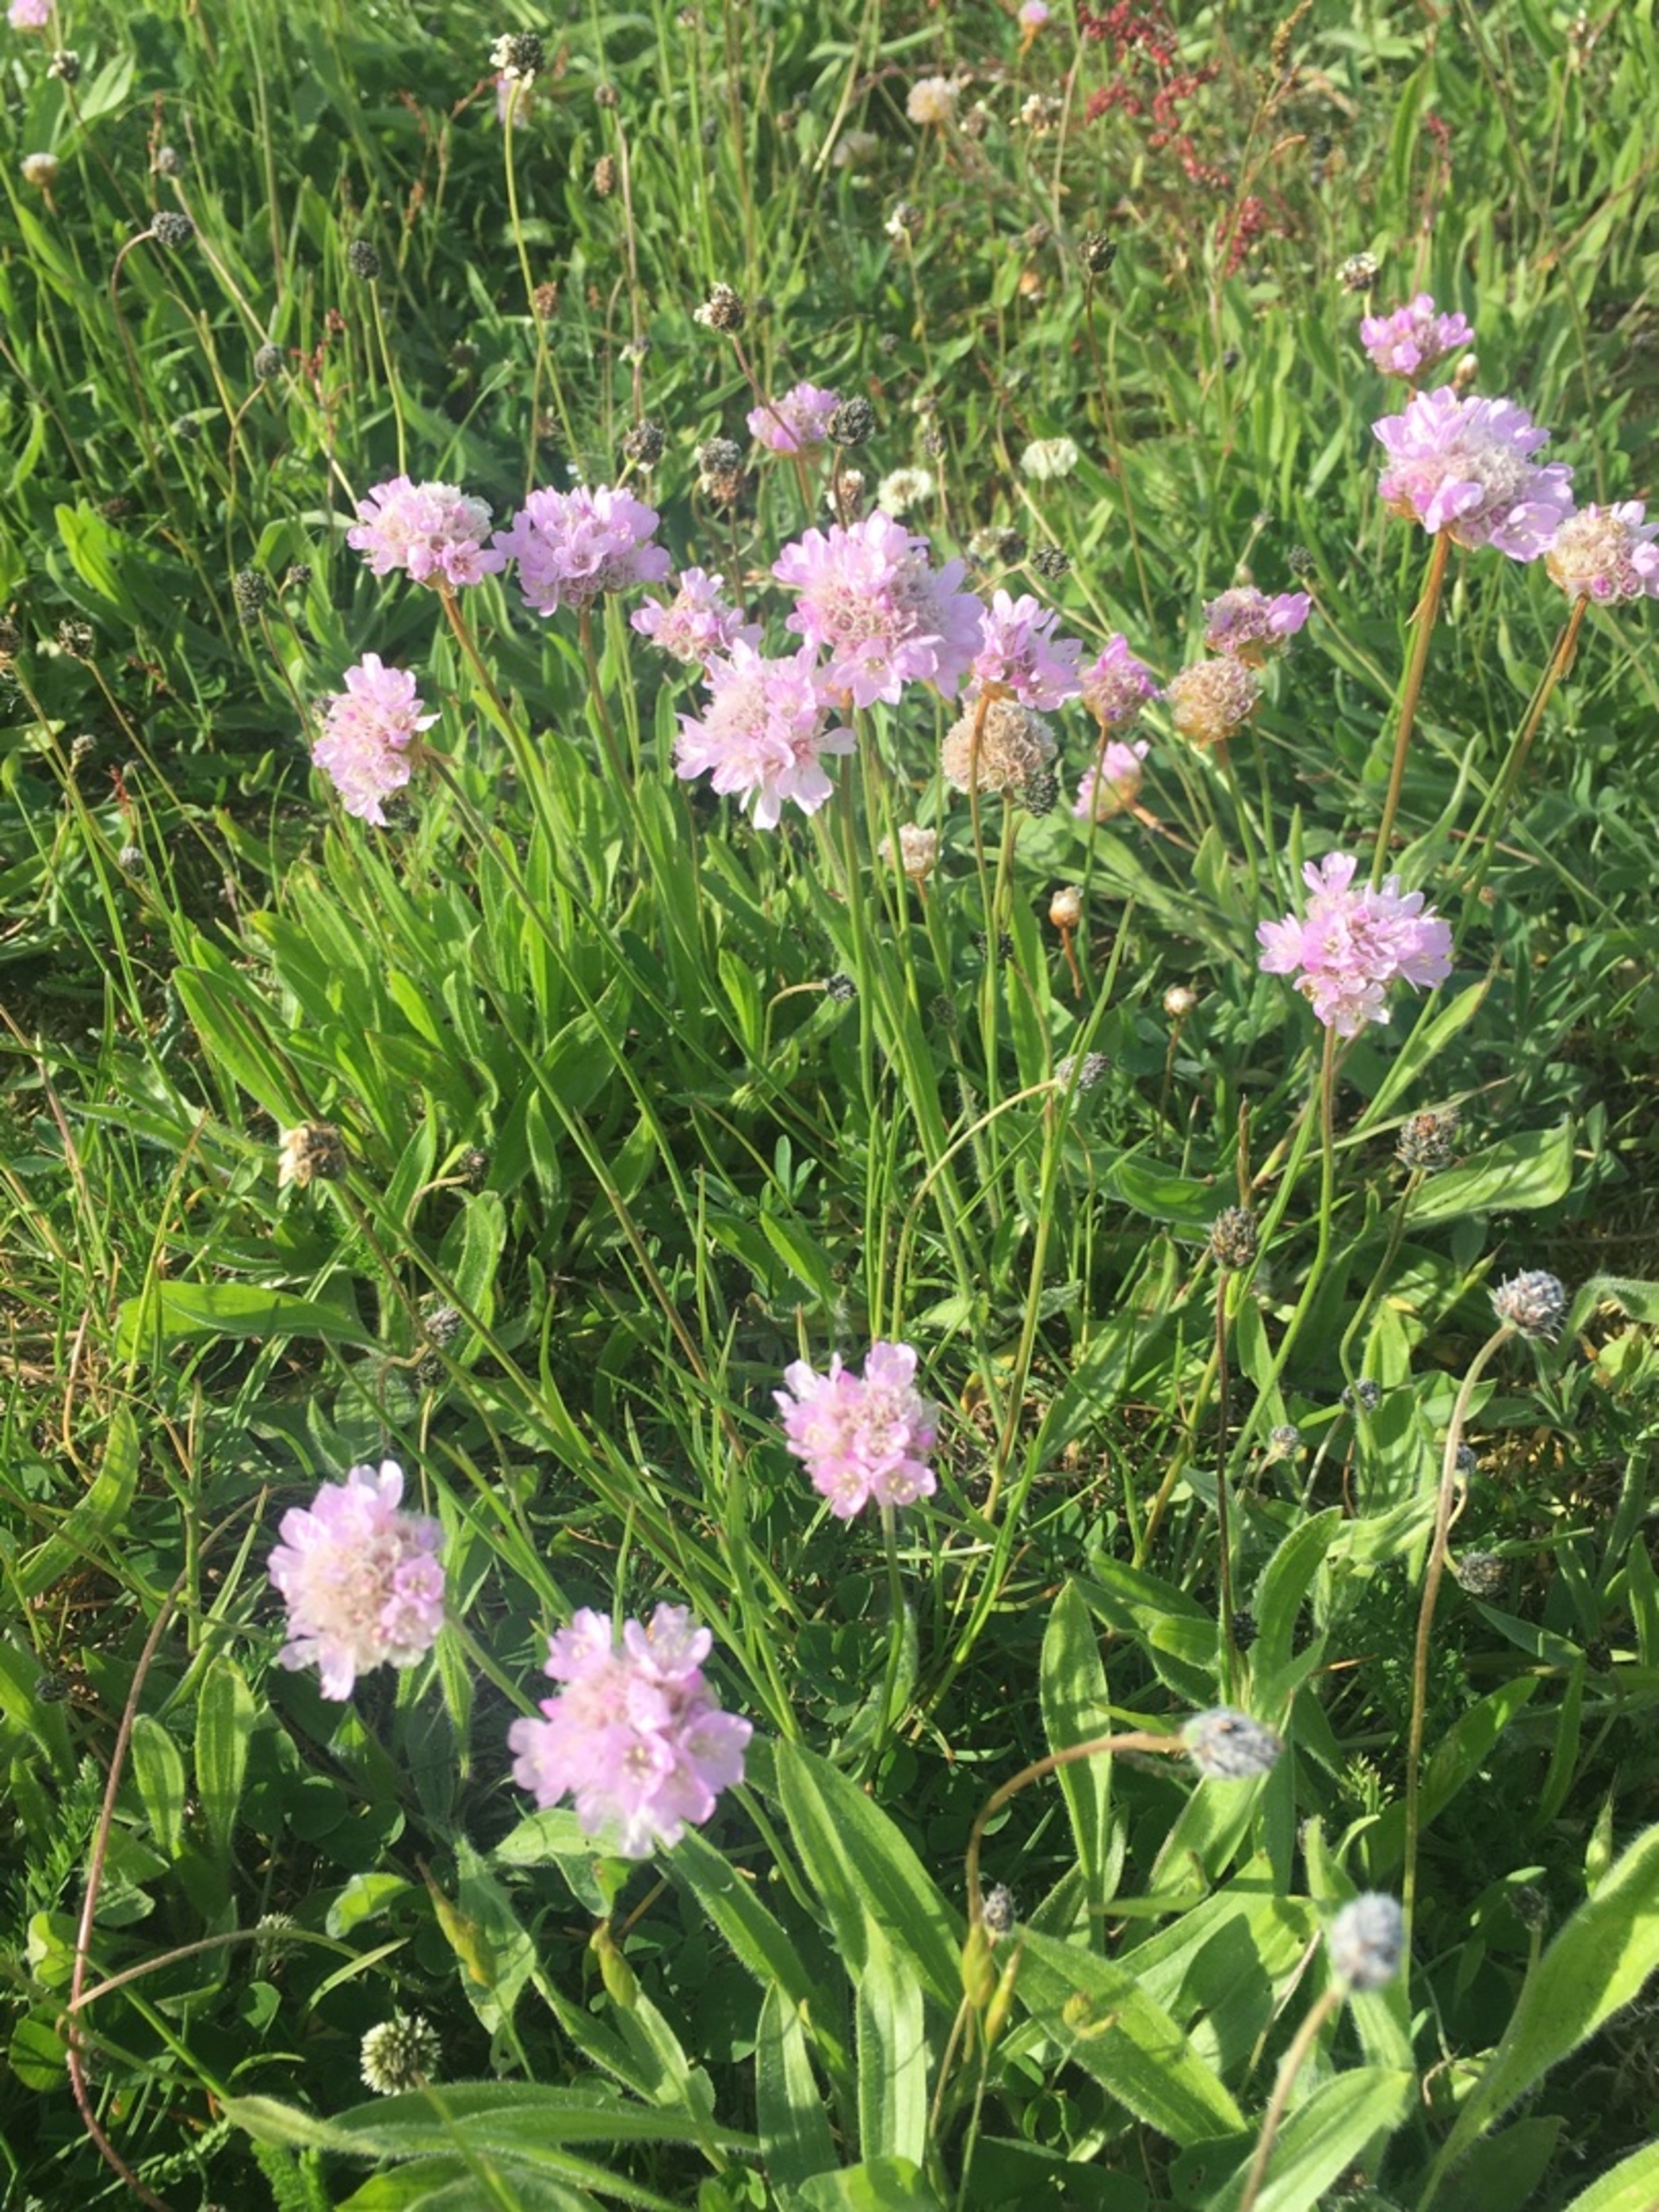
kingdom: Plantae
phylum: Tracheophyta
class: Magnoliopsida
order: Caryophyllales
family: Plumbaginaceae
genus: Armeria
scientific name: Armeria maritima
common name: Engelskgræs
